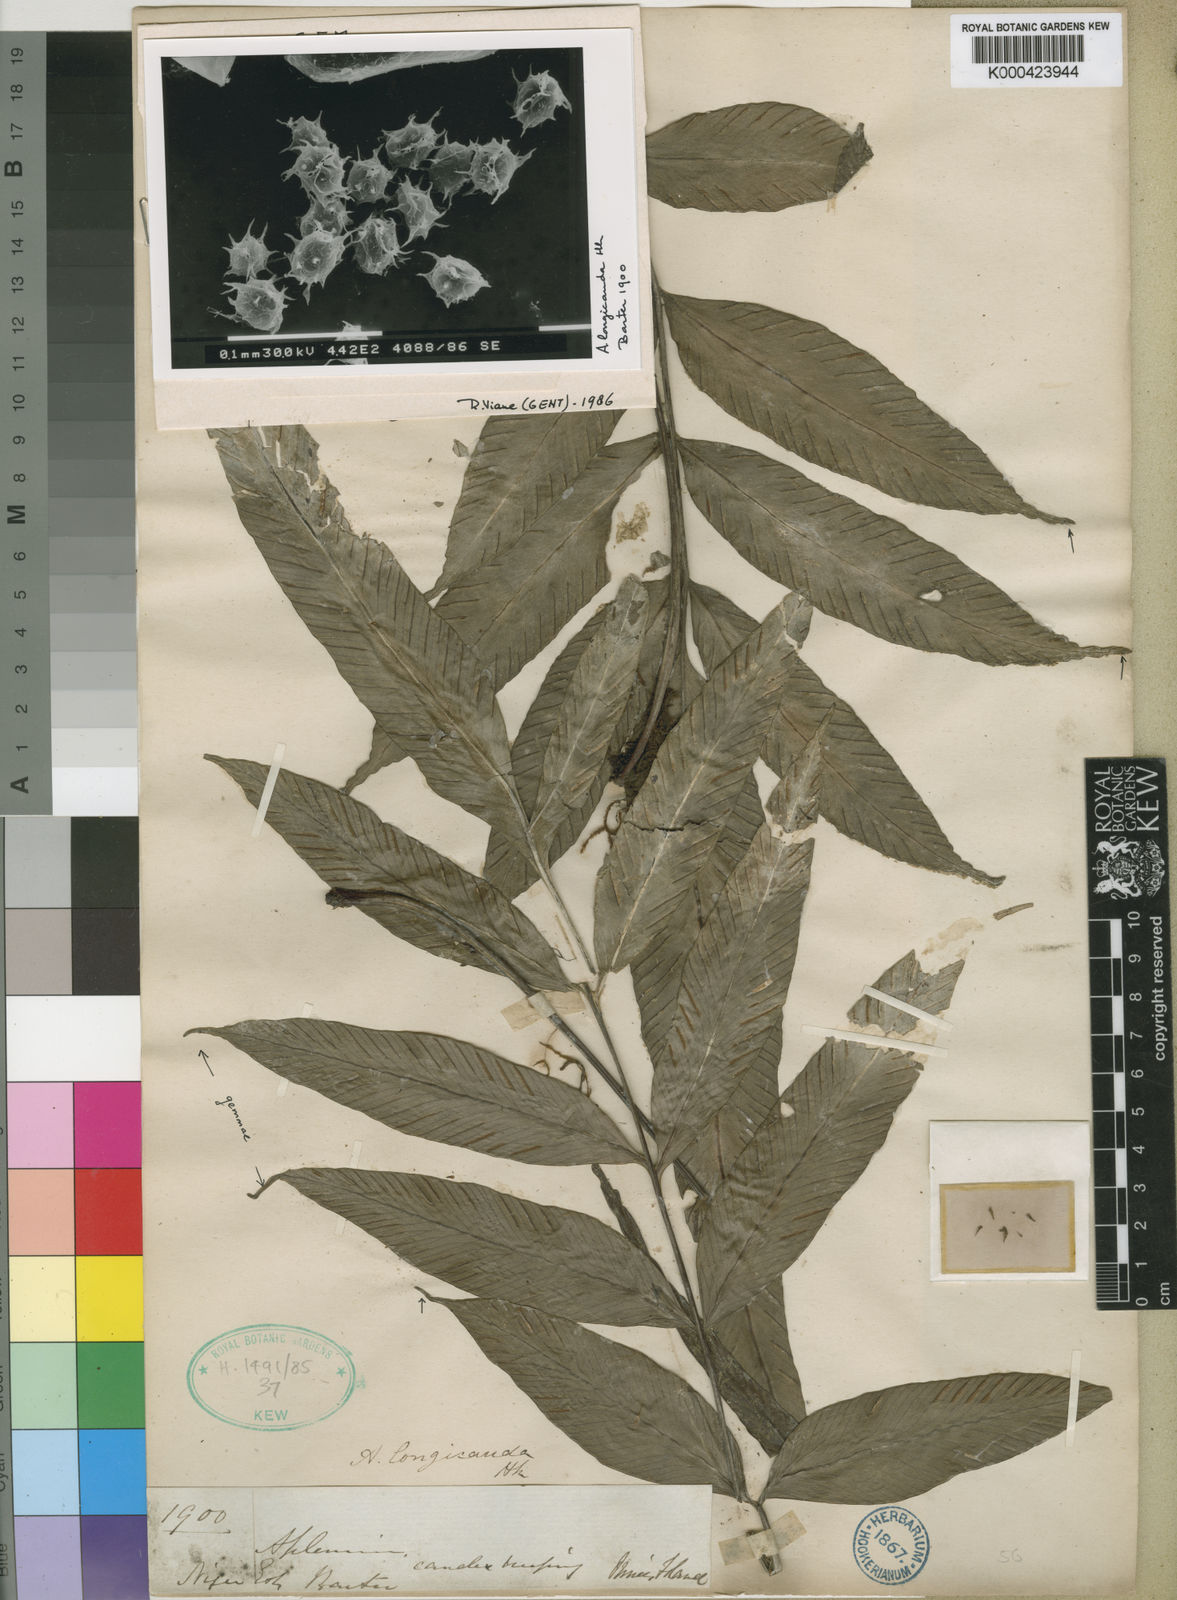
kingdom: Plantae
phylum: Tracheophyta
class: Polypodiopsida
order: Polypodiales
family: Aspleniaceae
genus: Asplenium
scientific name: Asplenium longicauda
